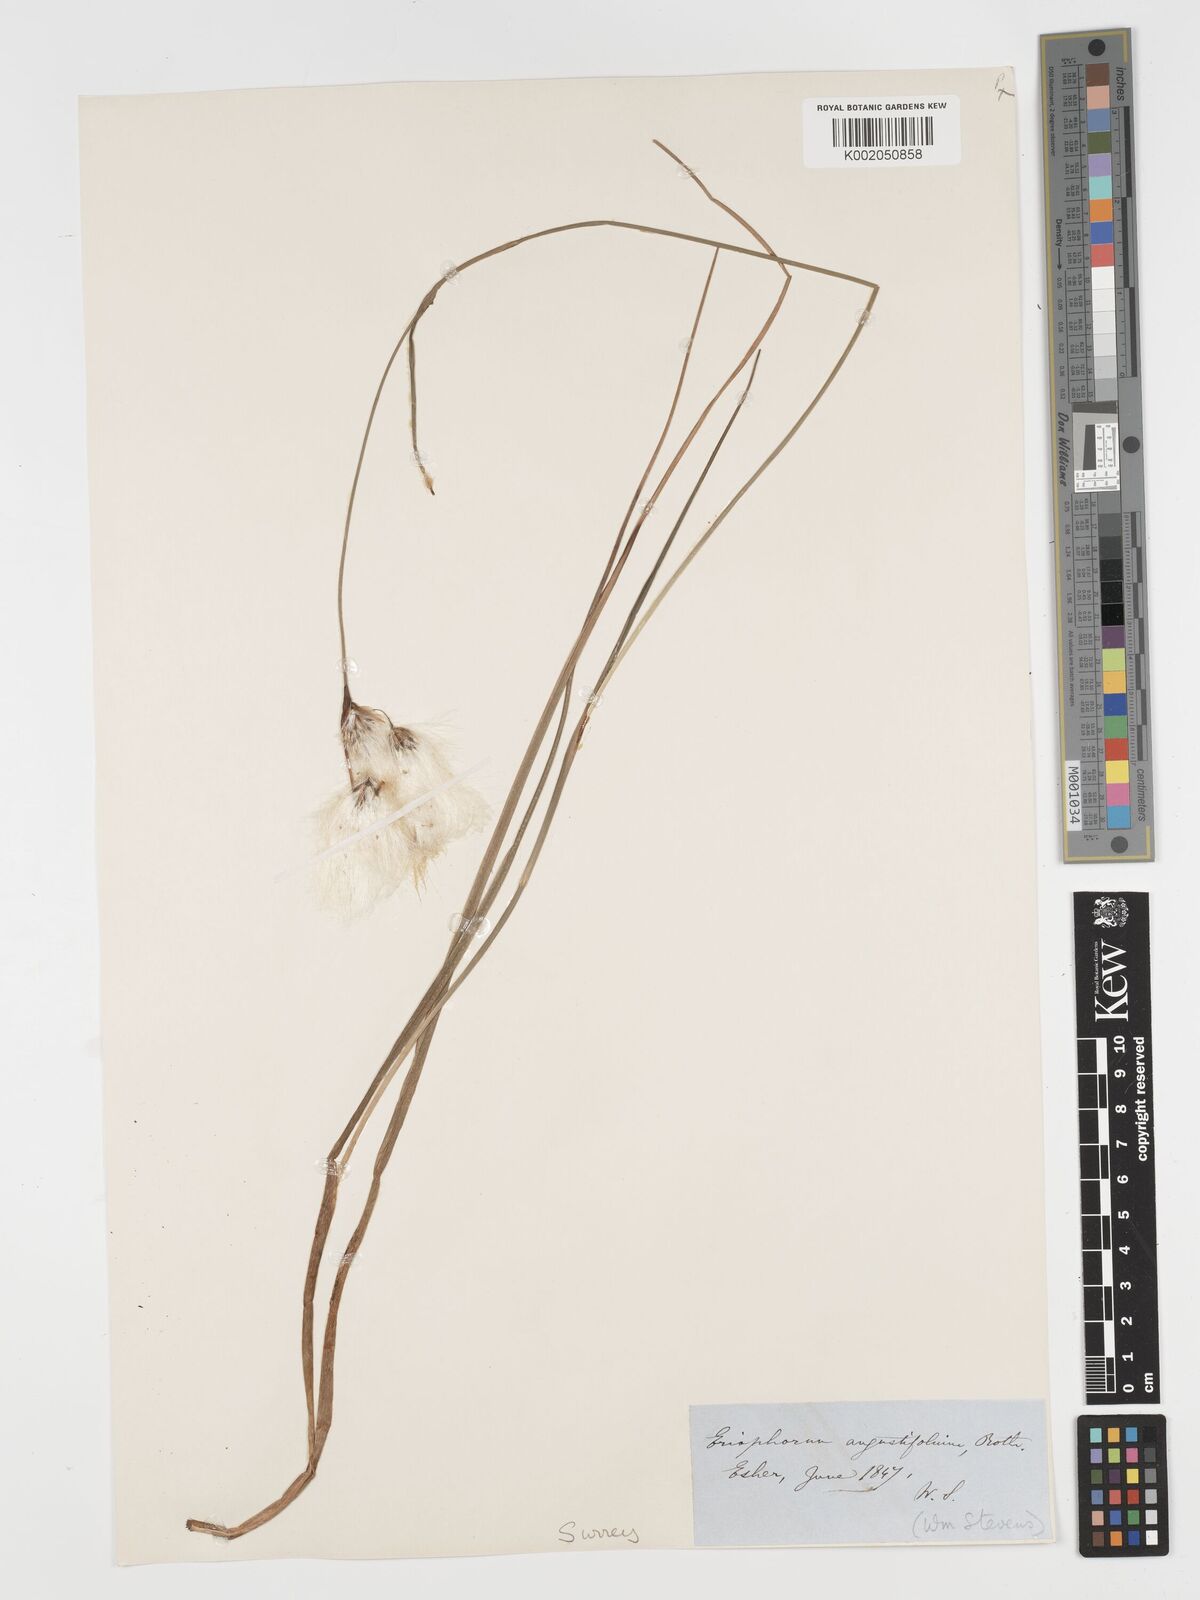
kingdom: Plantae
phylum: Tracheophyta
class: Liliopsida
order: Poales
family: Cyperaceae
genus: Eriophorum
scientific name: Eriophorum angustifolium
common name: Common cottongrass
